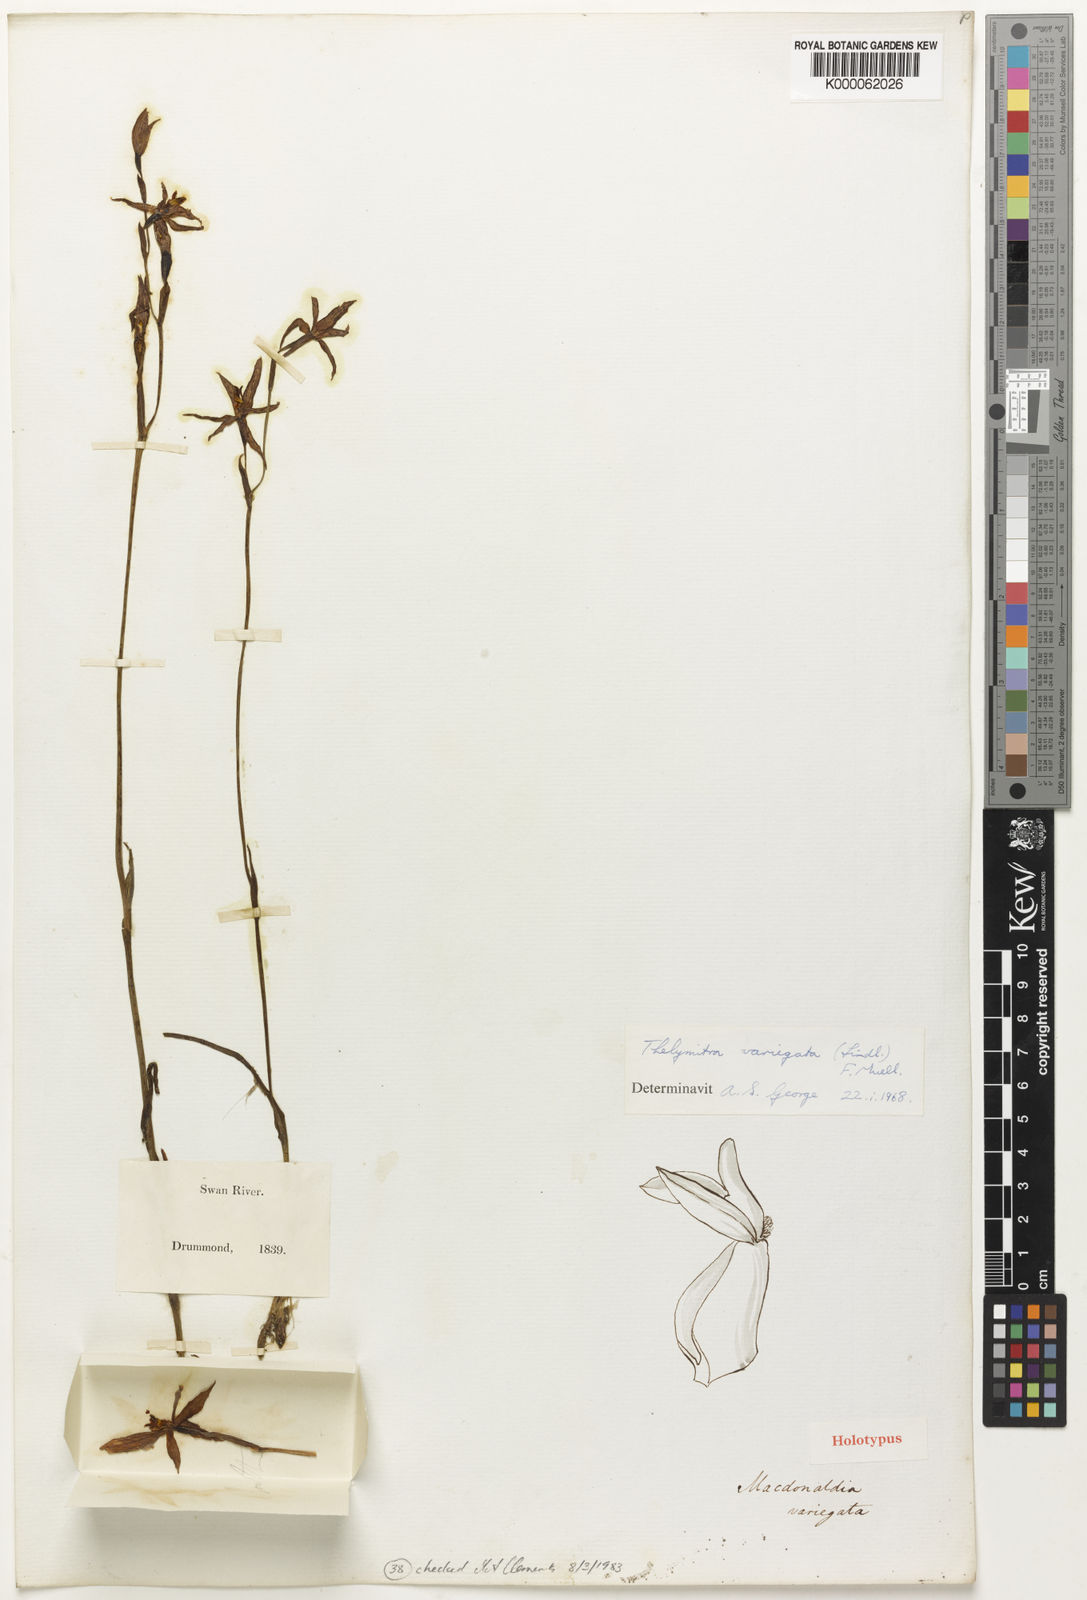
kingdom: Plantae
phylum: Tracheophyta
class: Liliopsida
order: Asparagales
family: Orchidaceae
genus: Thelymitra
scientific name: Thelymitra variegata
